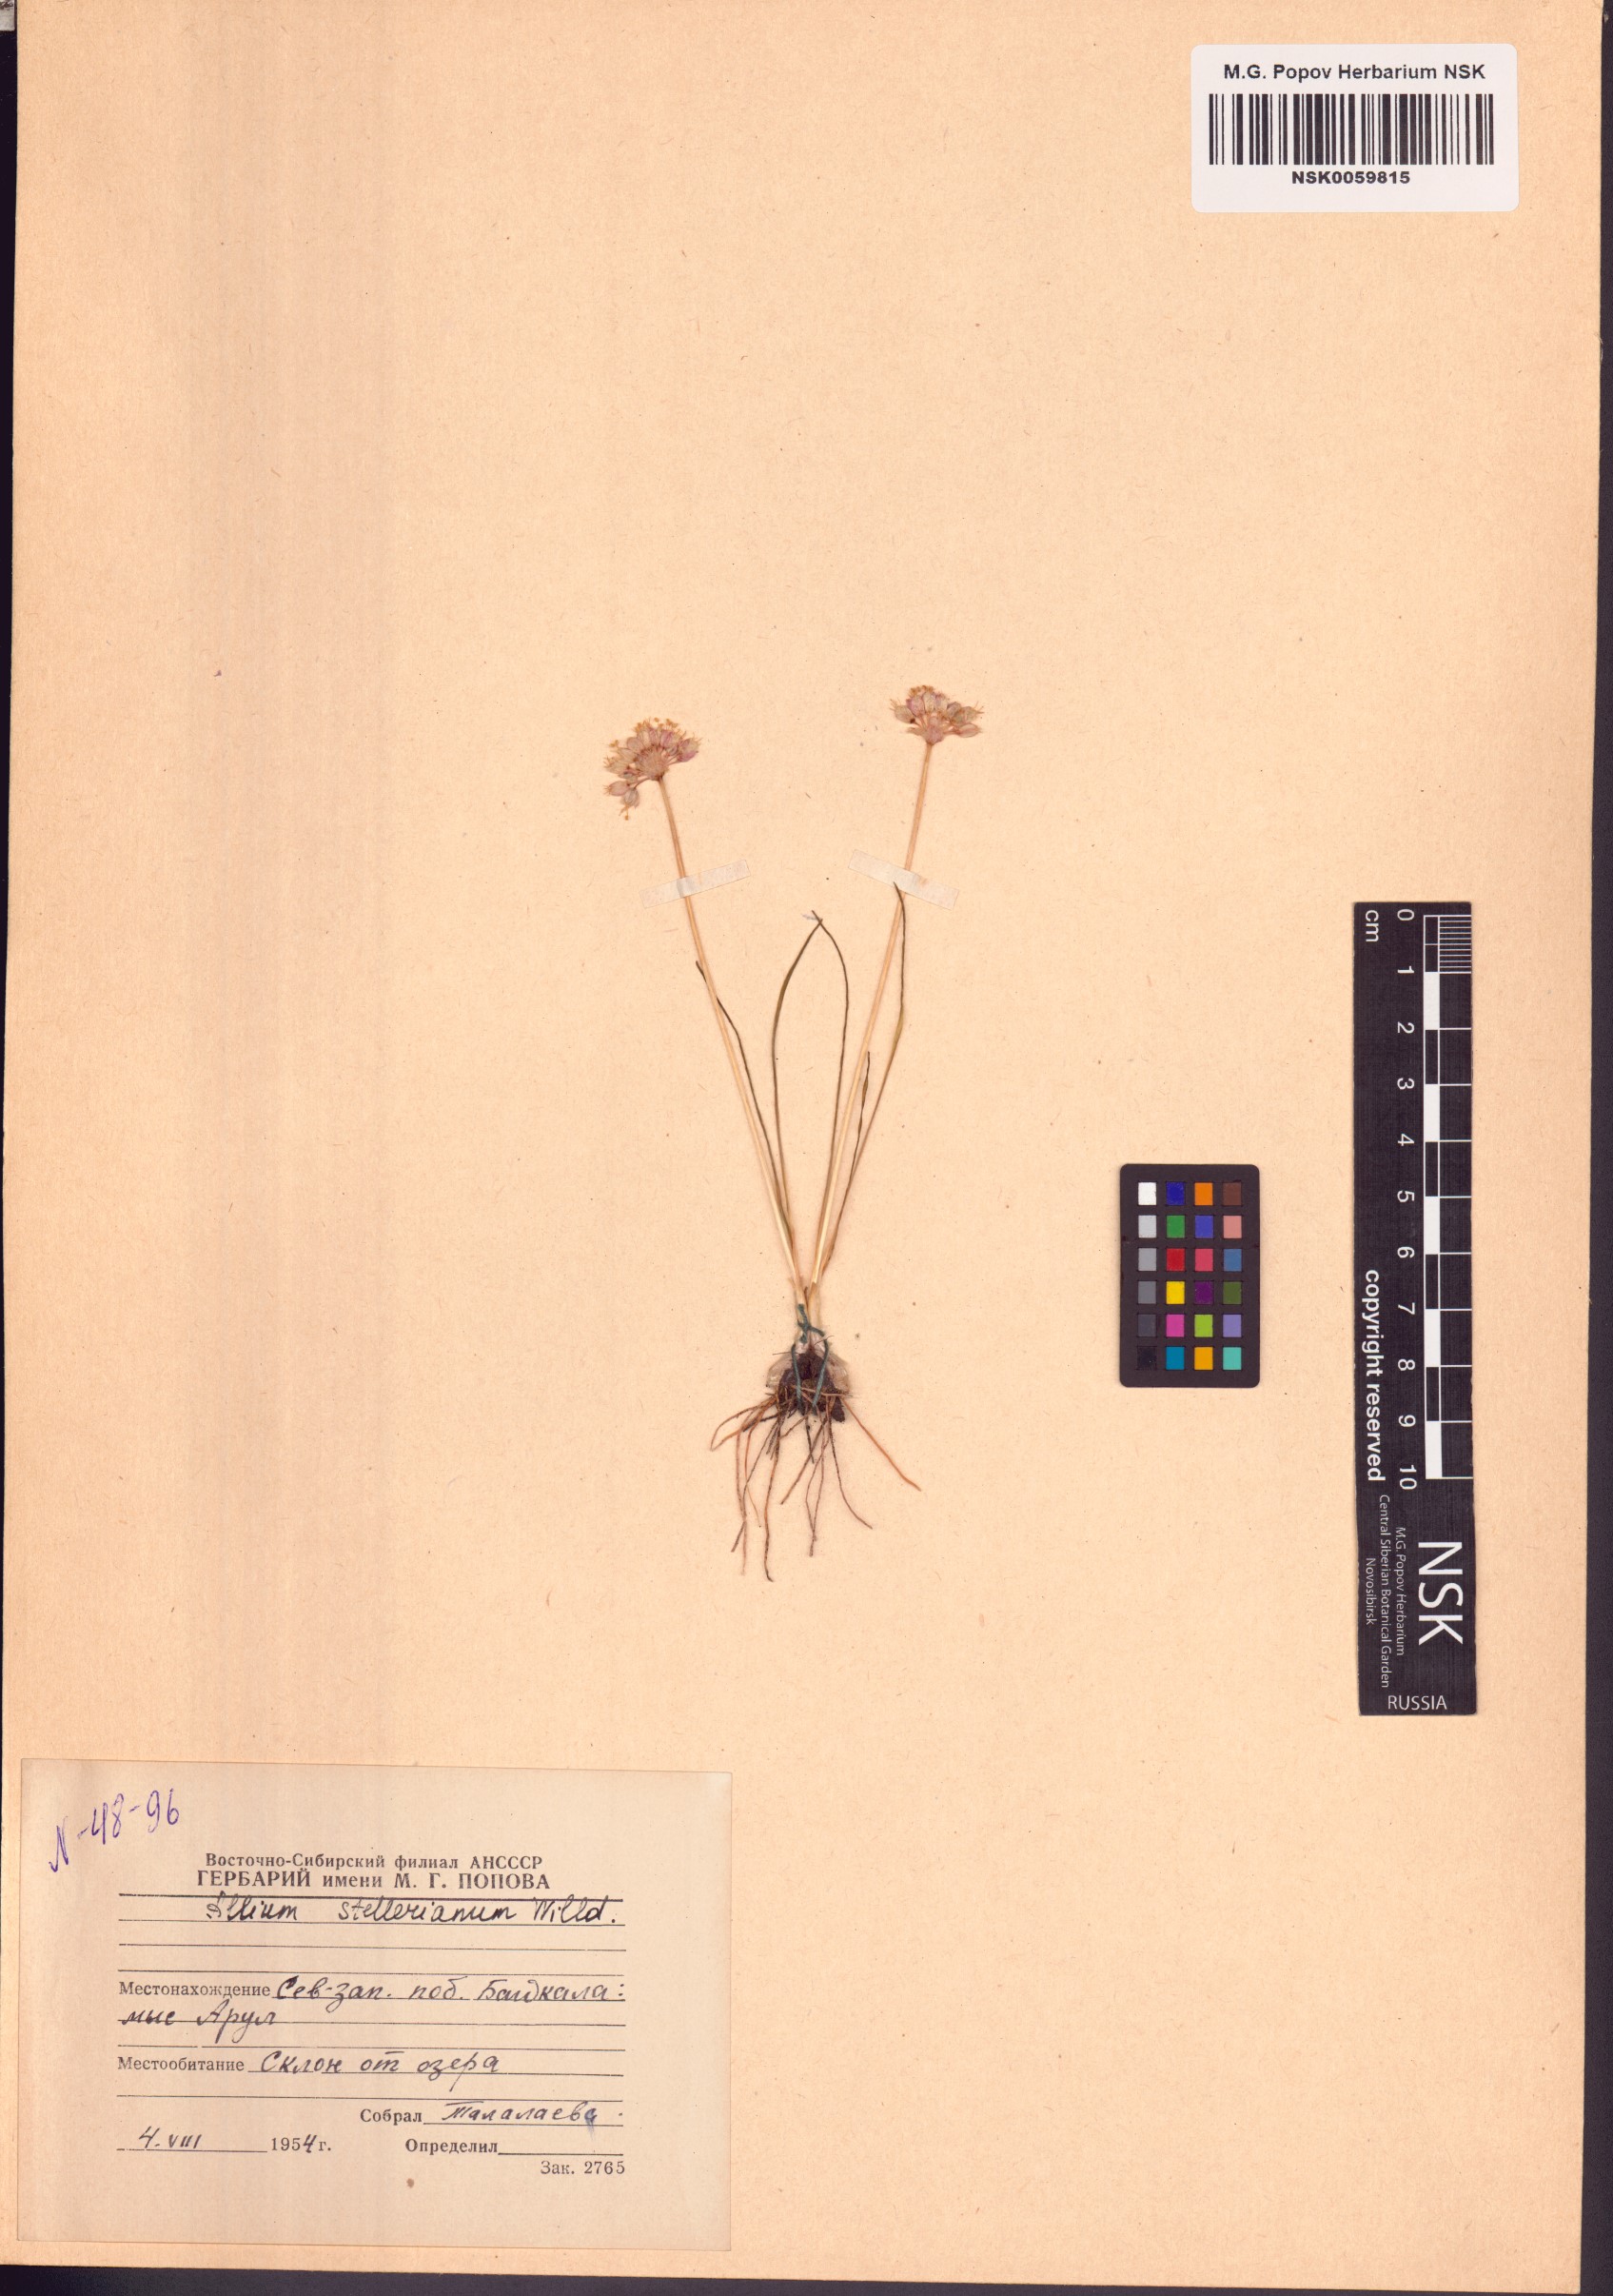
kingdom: Plantae
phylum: Tracheophyta
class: Liliopsida
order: Asparagales
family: Amaryllidaceae
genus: Allium
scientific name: Allium stellerianum
